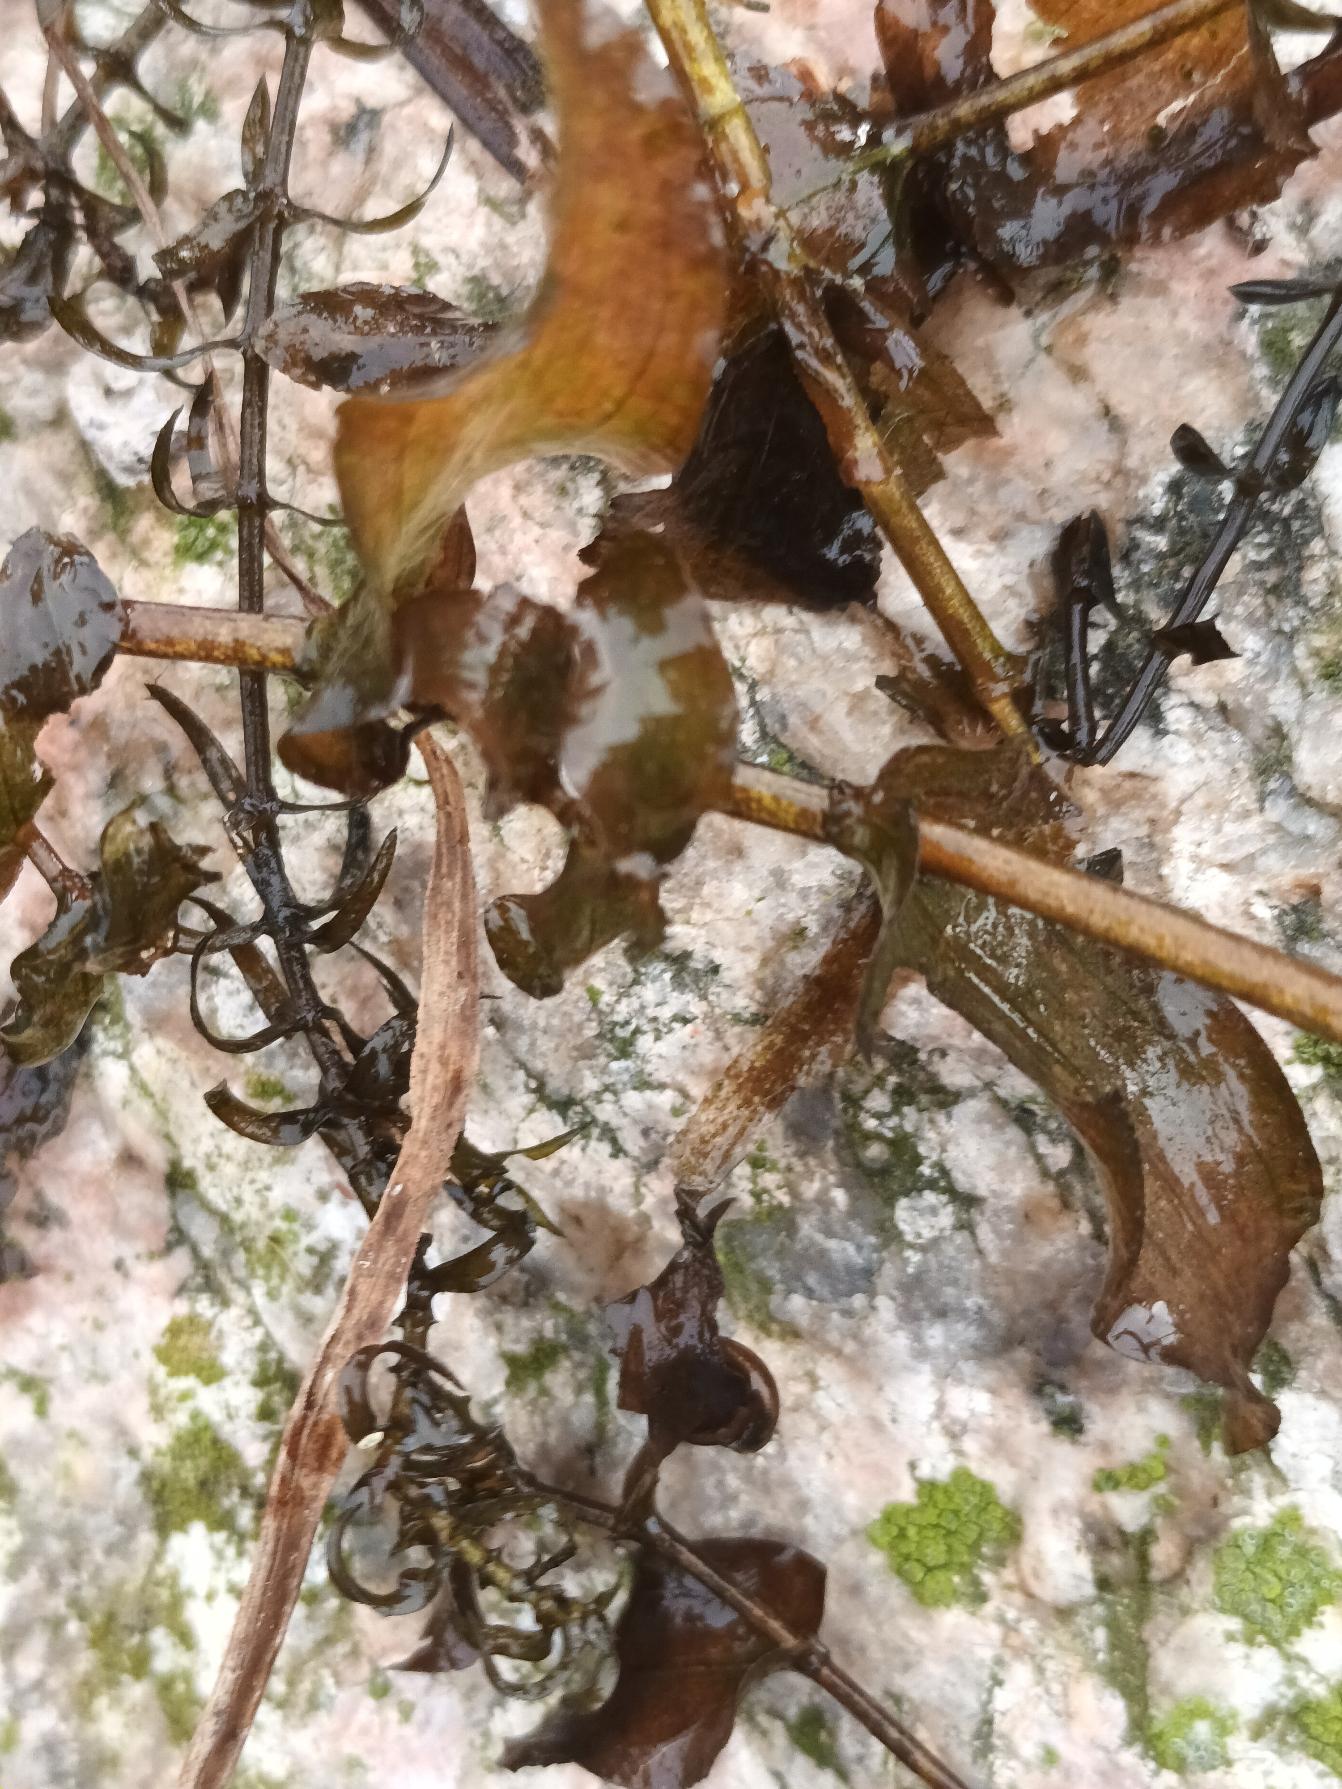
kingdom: Plantae
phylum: Tracheophyta
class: Liliopsida
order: Alismatales
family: Potamogetonaceae
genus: Potamogeton
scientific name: Potamogeton perfoliatus
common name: Hjertebladet vandaks
